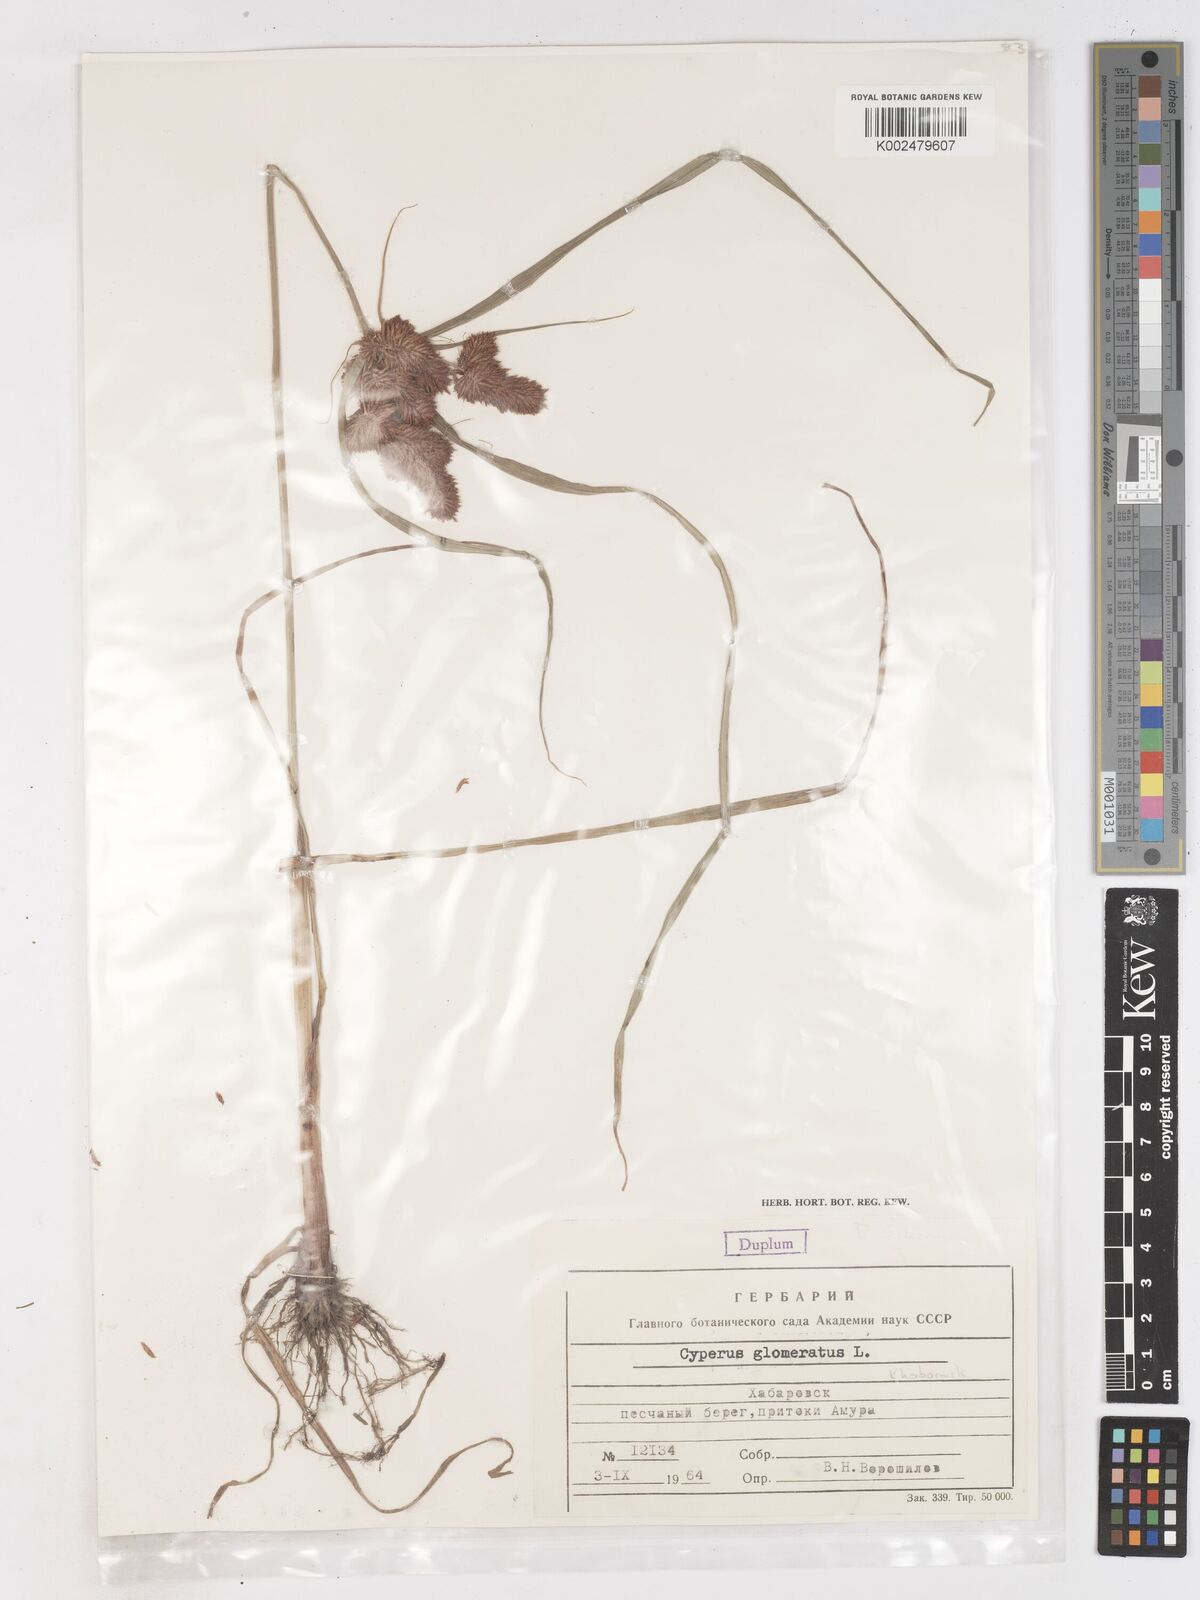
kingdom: Plantae
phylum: Tracheophyta
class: Liliopsida
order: Poales
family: Cyperaceae
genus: Cyperus
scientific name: Cyperus glomeratus
